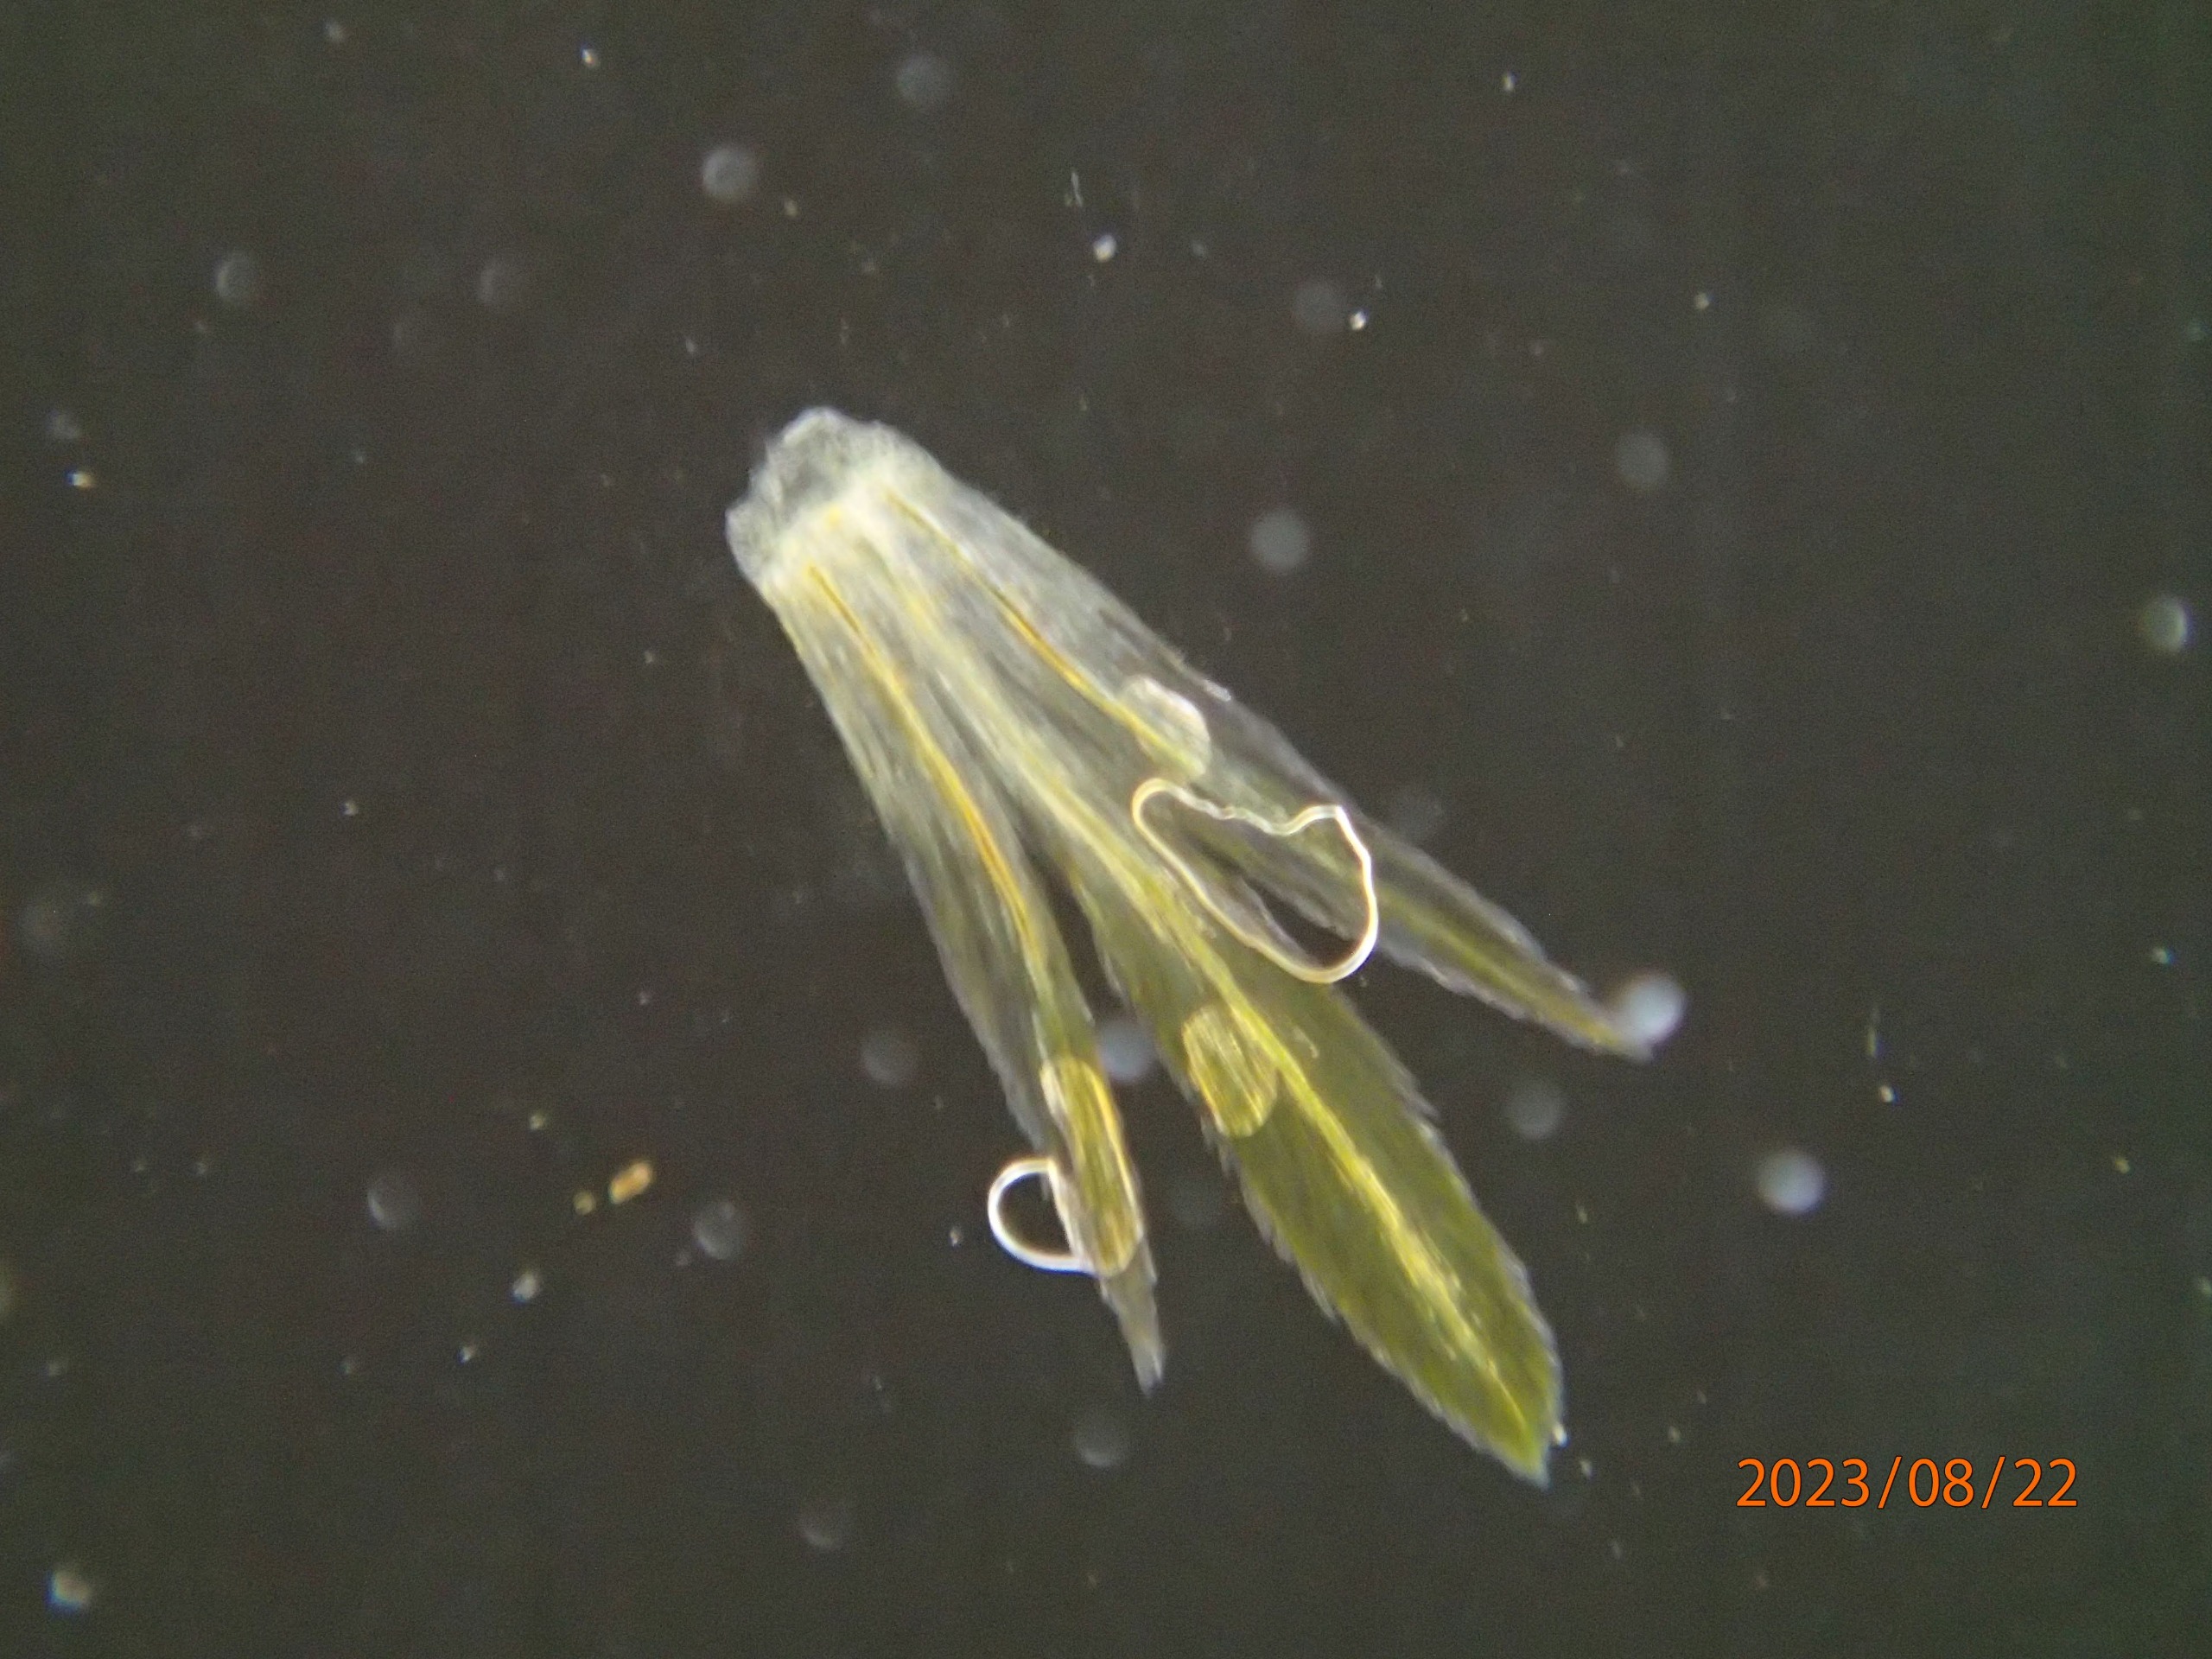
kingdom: Plantae
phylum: Tracheophyta
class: Magnoliopsida
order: Asterales
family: Asteraceae
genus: Galinsoga
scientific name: Galinsoga parviflora
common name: Håret kortstråle
